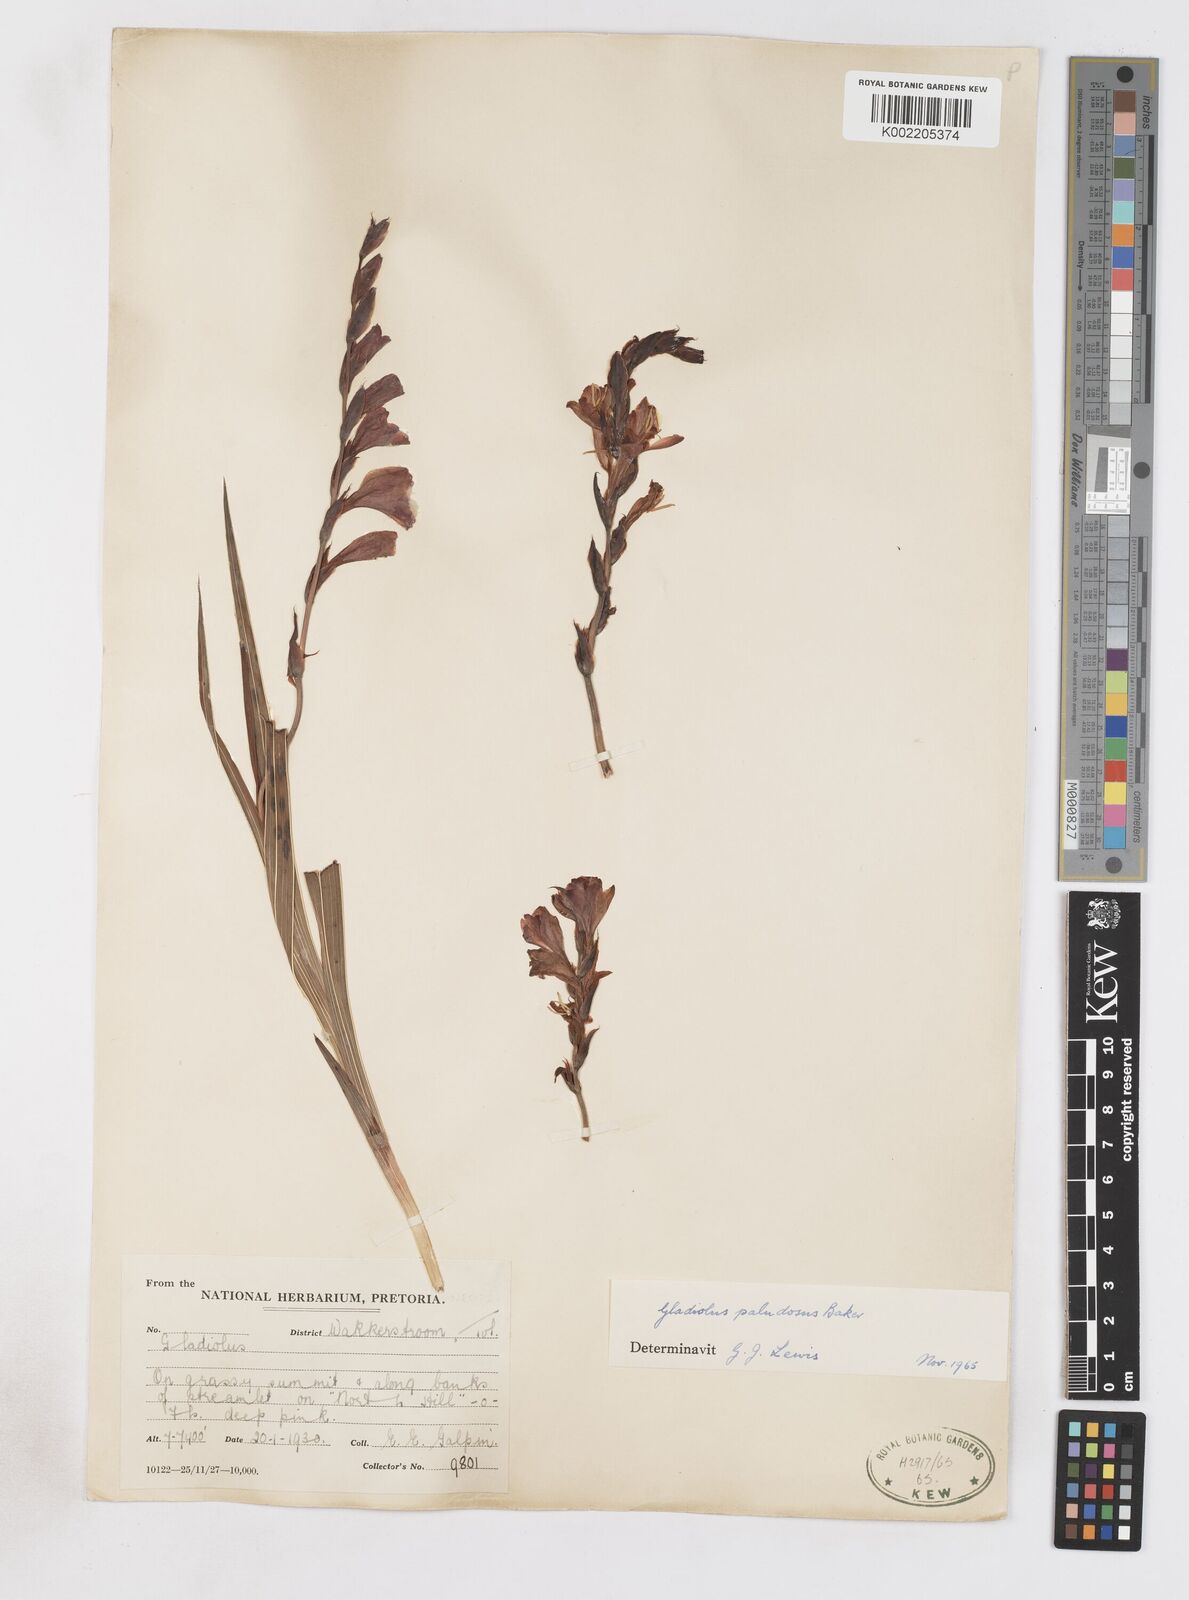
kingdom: Plantae
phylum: Tracheophyta
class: Liliopsida
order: Asparagales
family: Iridaceae
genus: Gladiolus
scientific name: Gladiolus crassifolius
